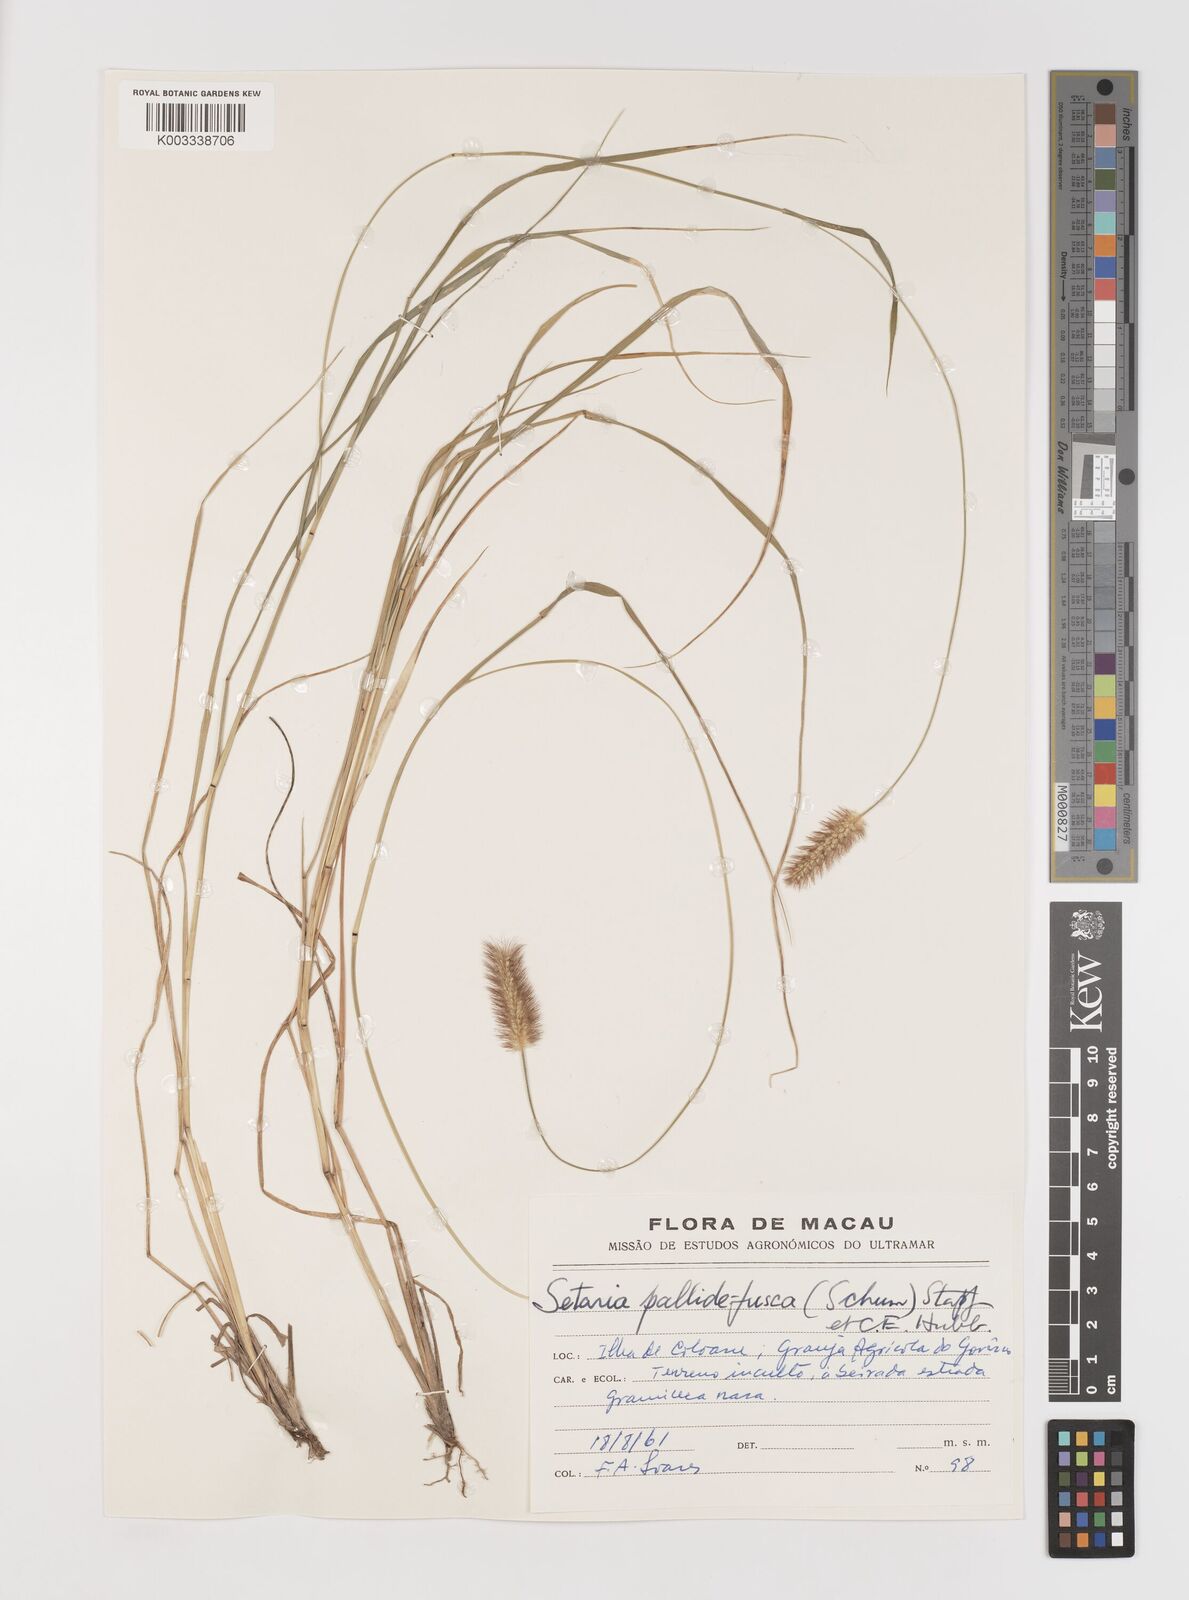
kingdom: Plantae
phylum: Tracheophyta
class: Liliopsida
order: Poales
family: Poaceae
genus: Setaria
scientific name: Setaria parviflora
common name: Knotroot bristle-grass
